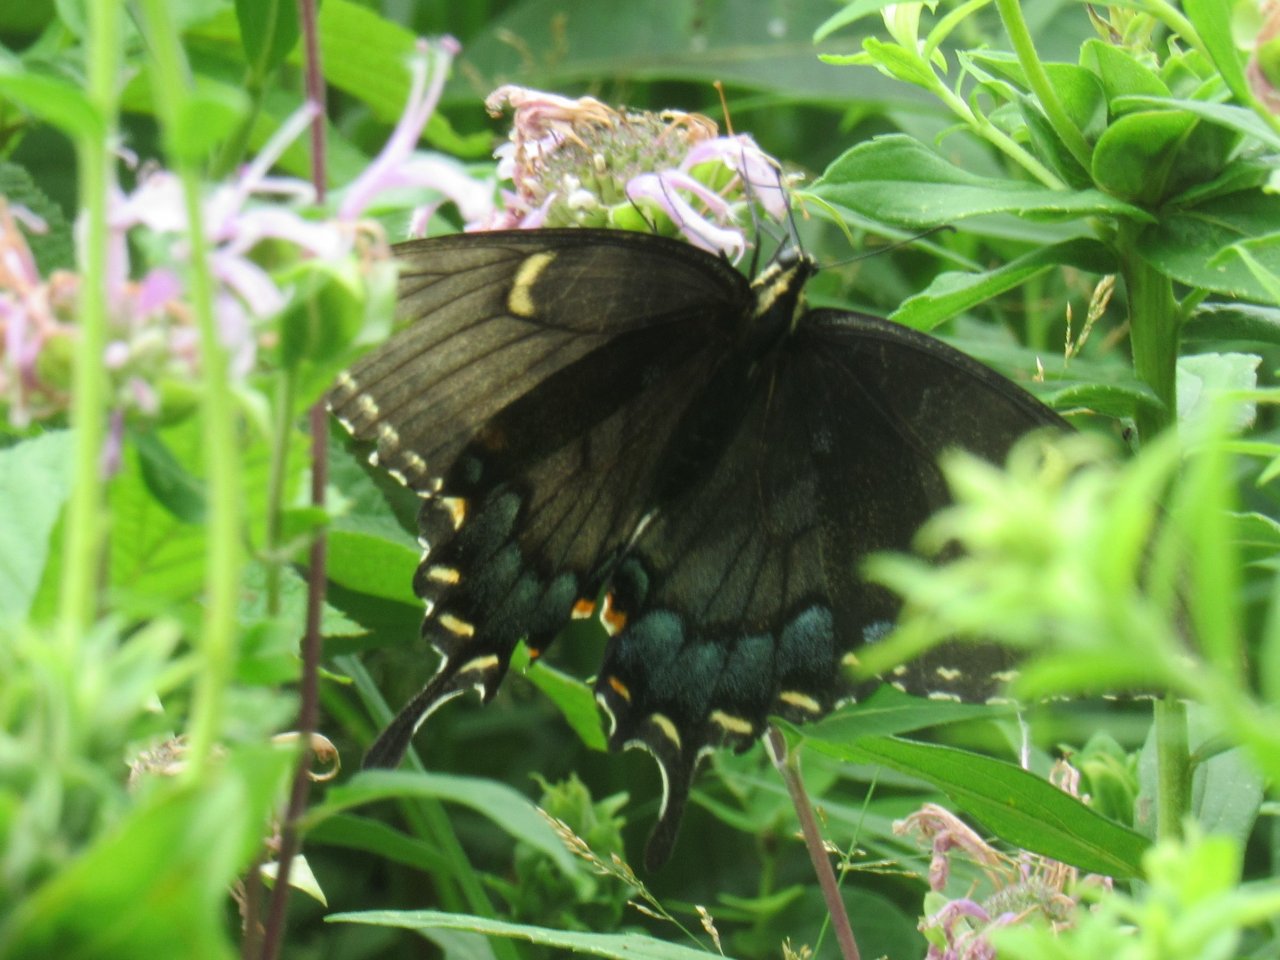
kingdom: Animalia
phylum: Arthropoda
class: Insecta
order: Lepidoptera
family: Papilionidae
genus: Pterourus
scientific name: Pterourus glaucus
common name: Eastern Tiger Swallowtail
